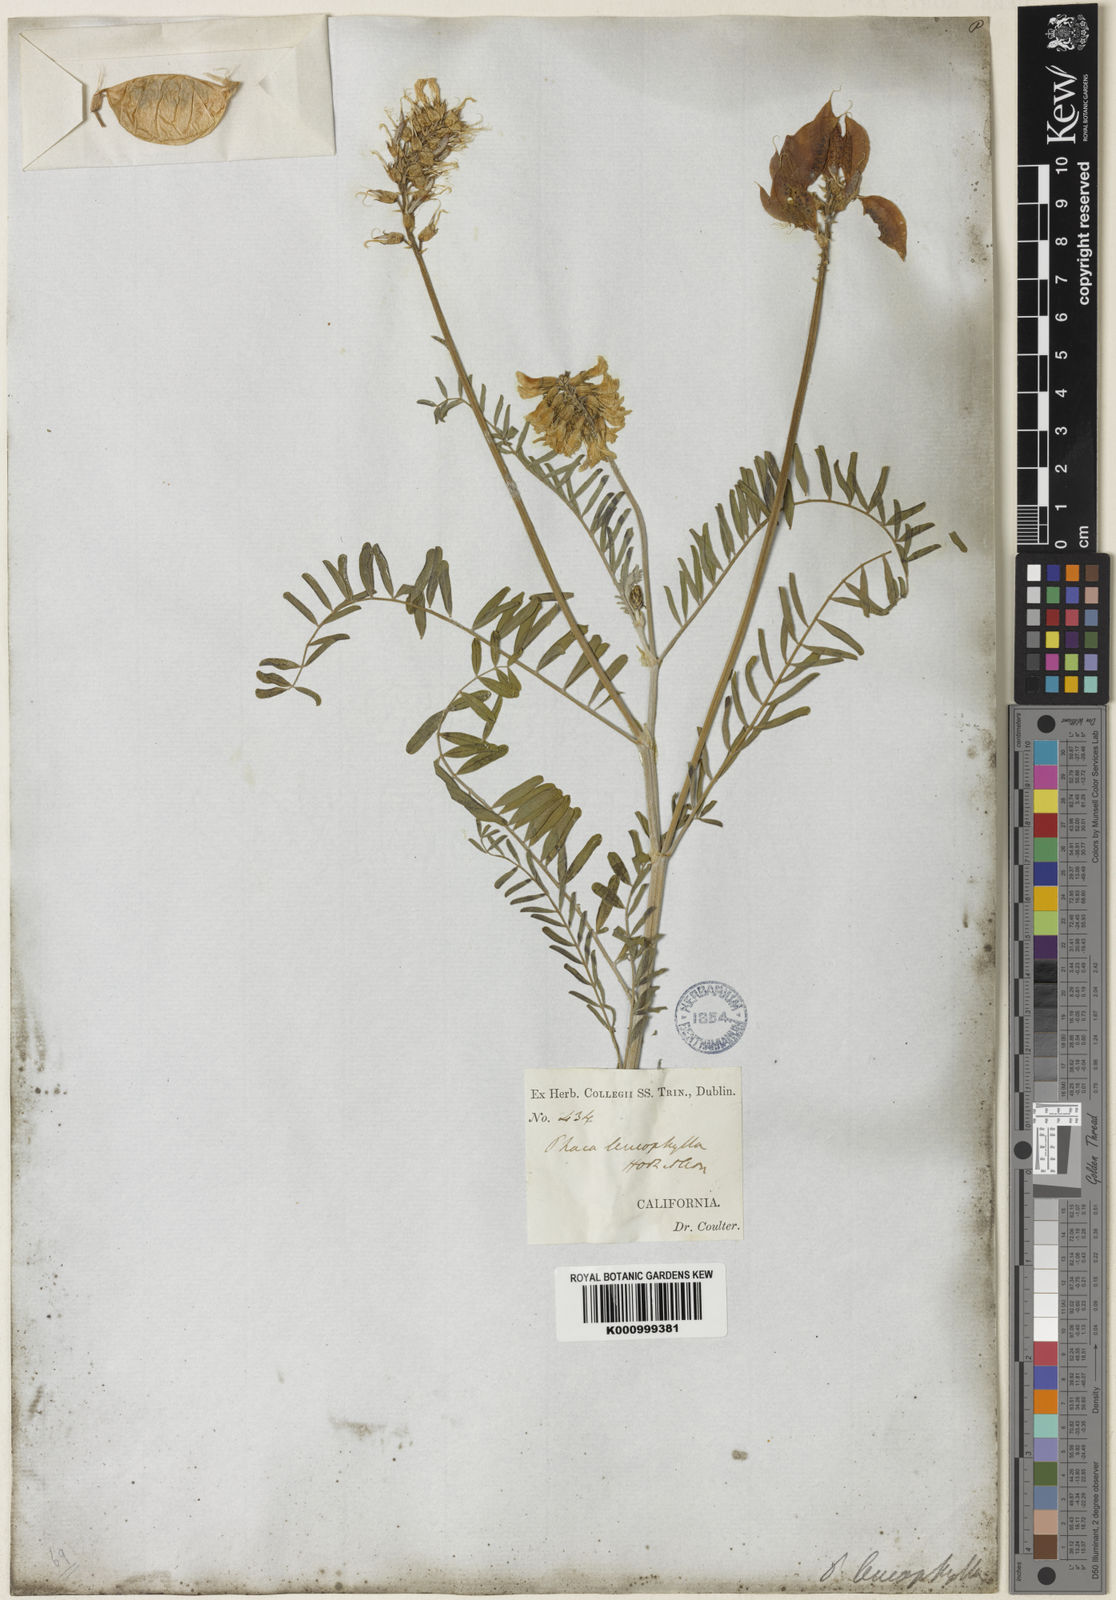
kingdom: Plantae
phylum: Tracheophyta
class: Magnoliopsida
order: Fabales
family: Fabaceae
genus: Astragalus
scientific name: Astragalus asymmetricus
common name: Horse locoweed
